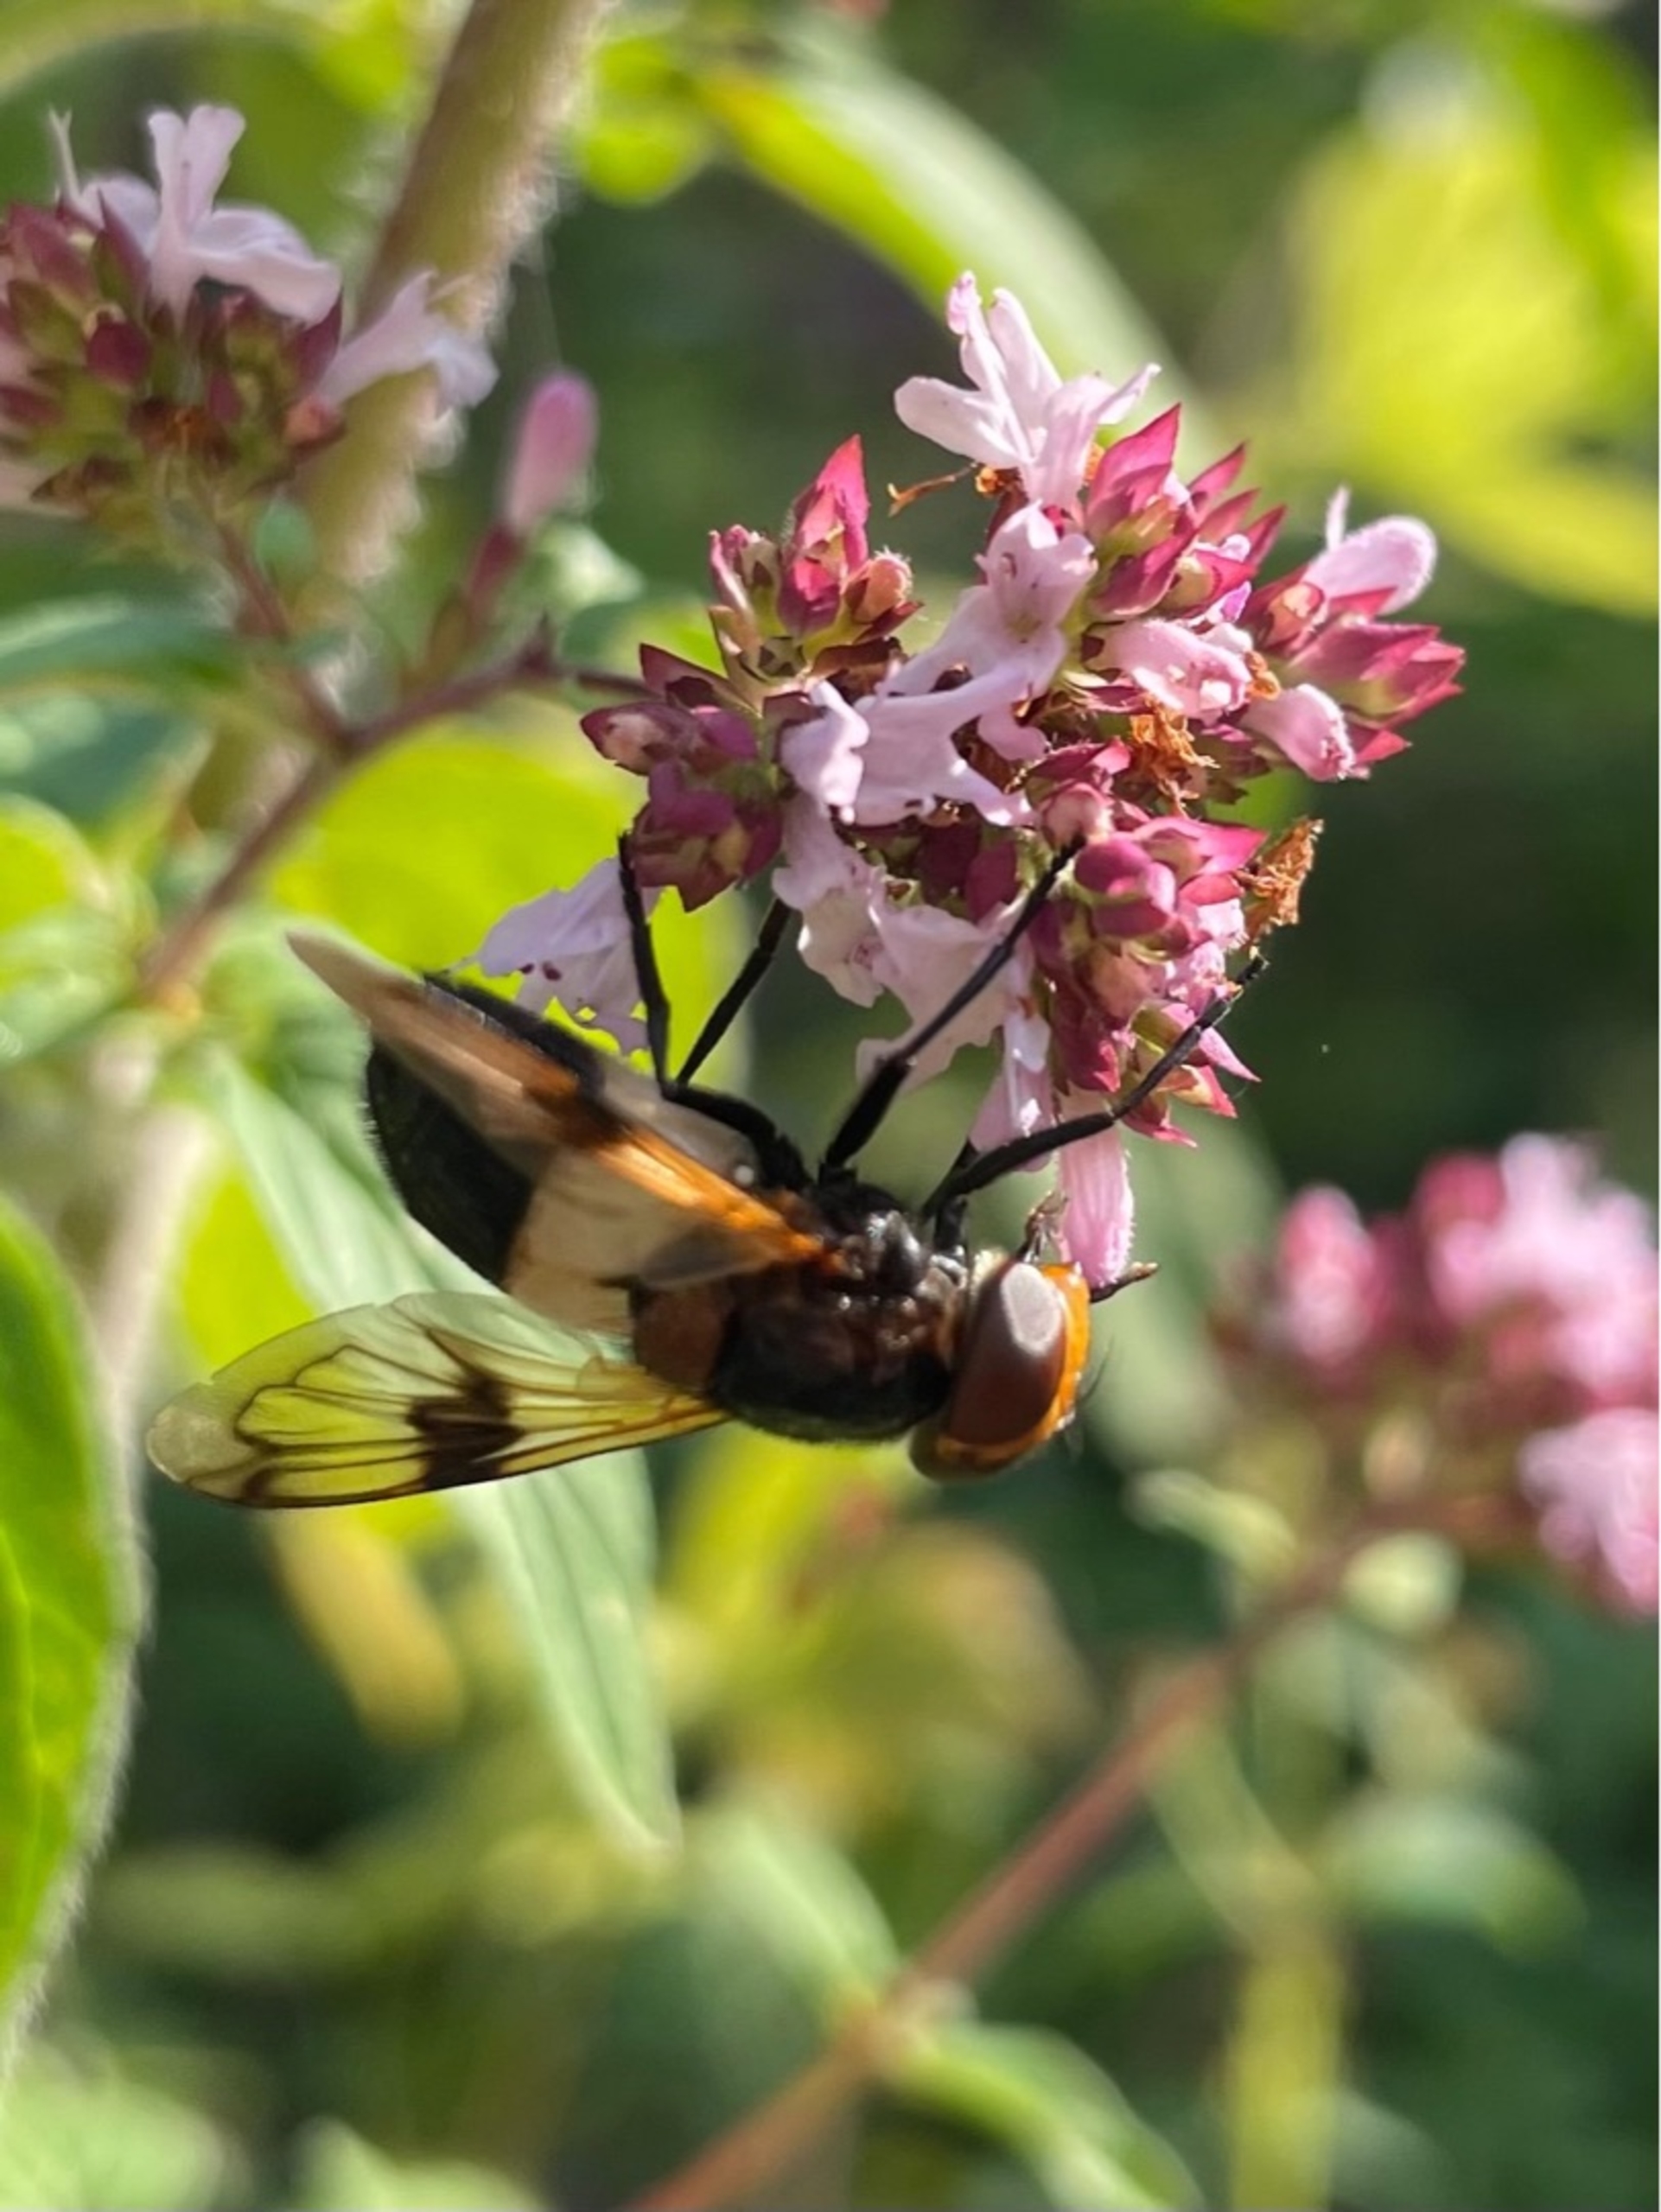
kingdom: Animalia
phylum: Arthropoda
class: Insecta
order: Diptera
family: Syrphidae
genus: Volucella
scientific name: Volucella pellucens
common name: Hvidbåndet humlesvirreflue
